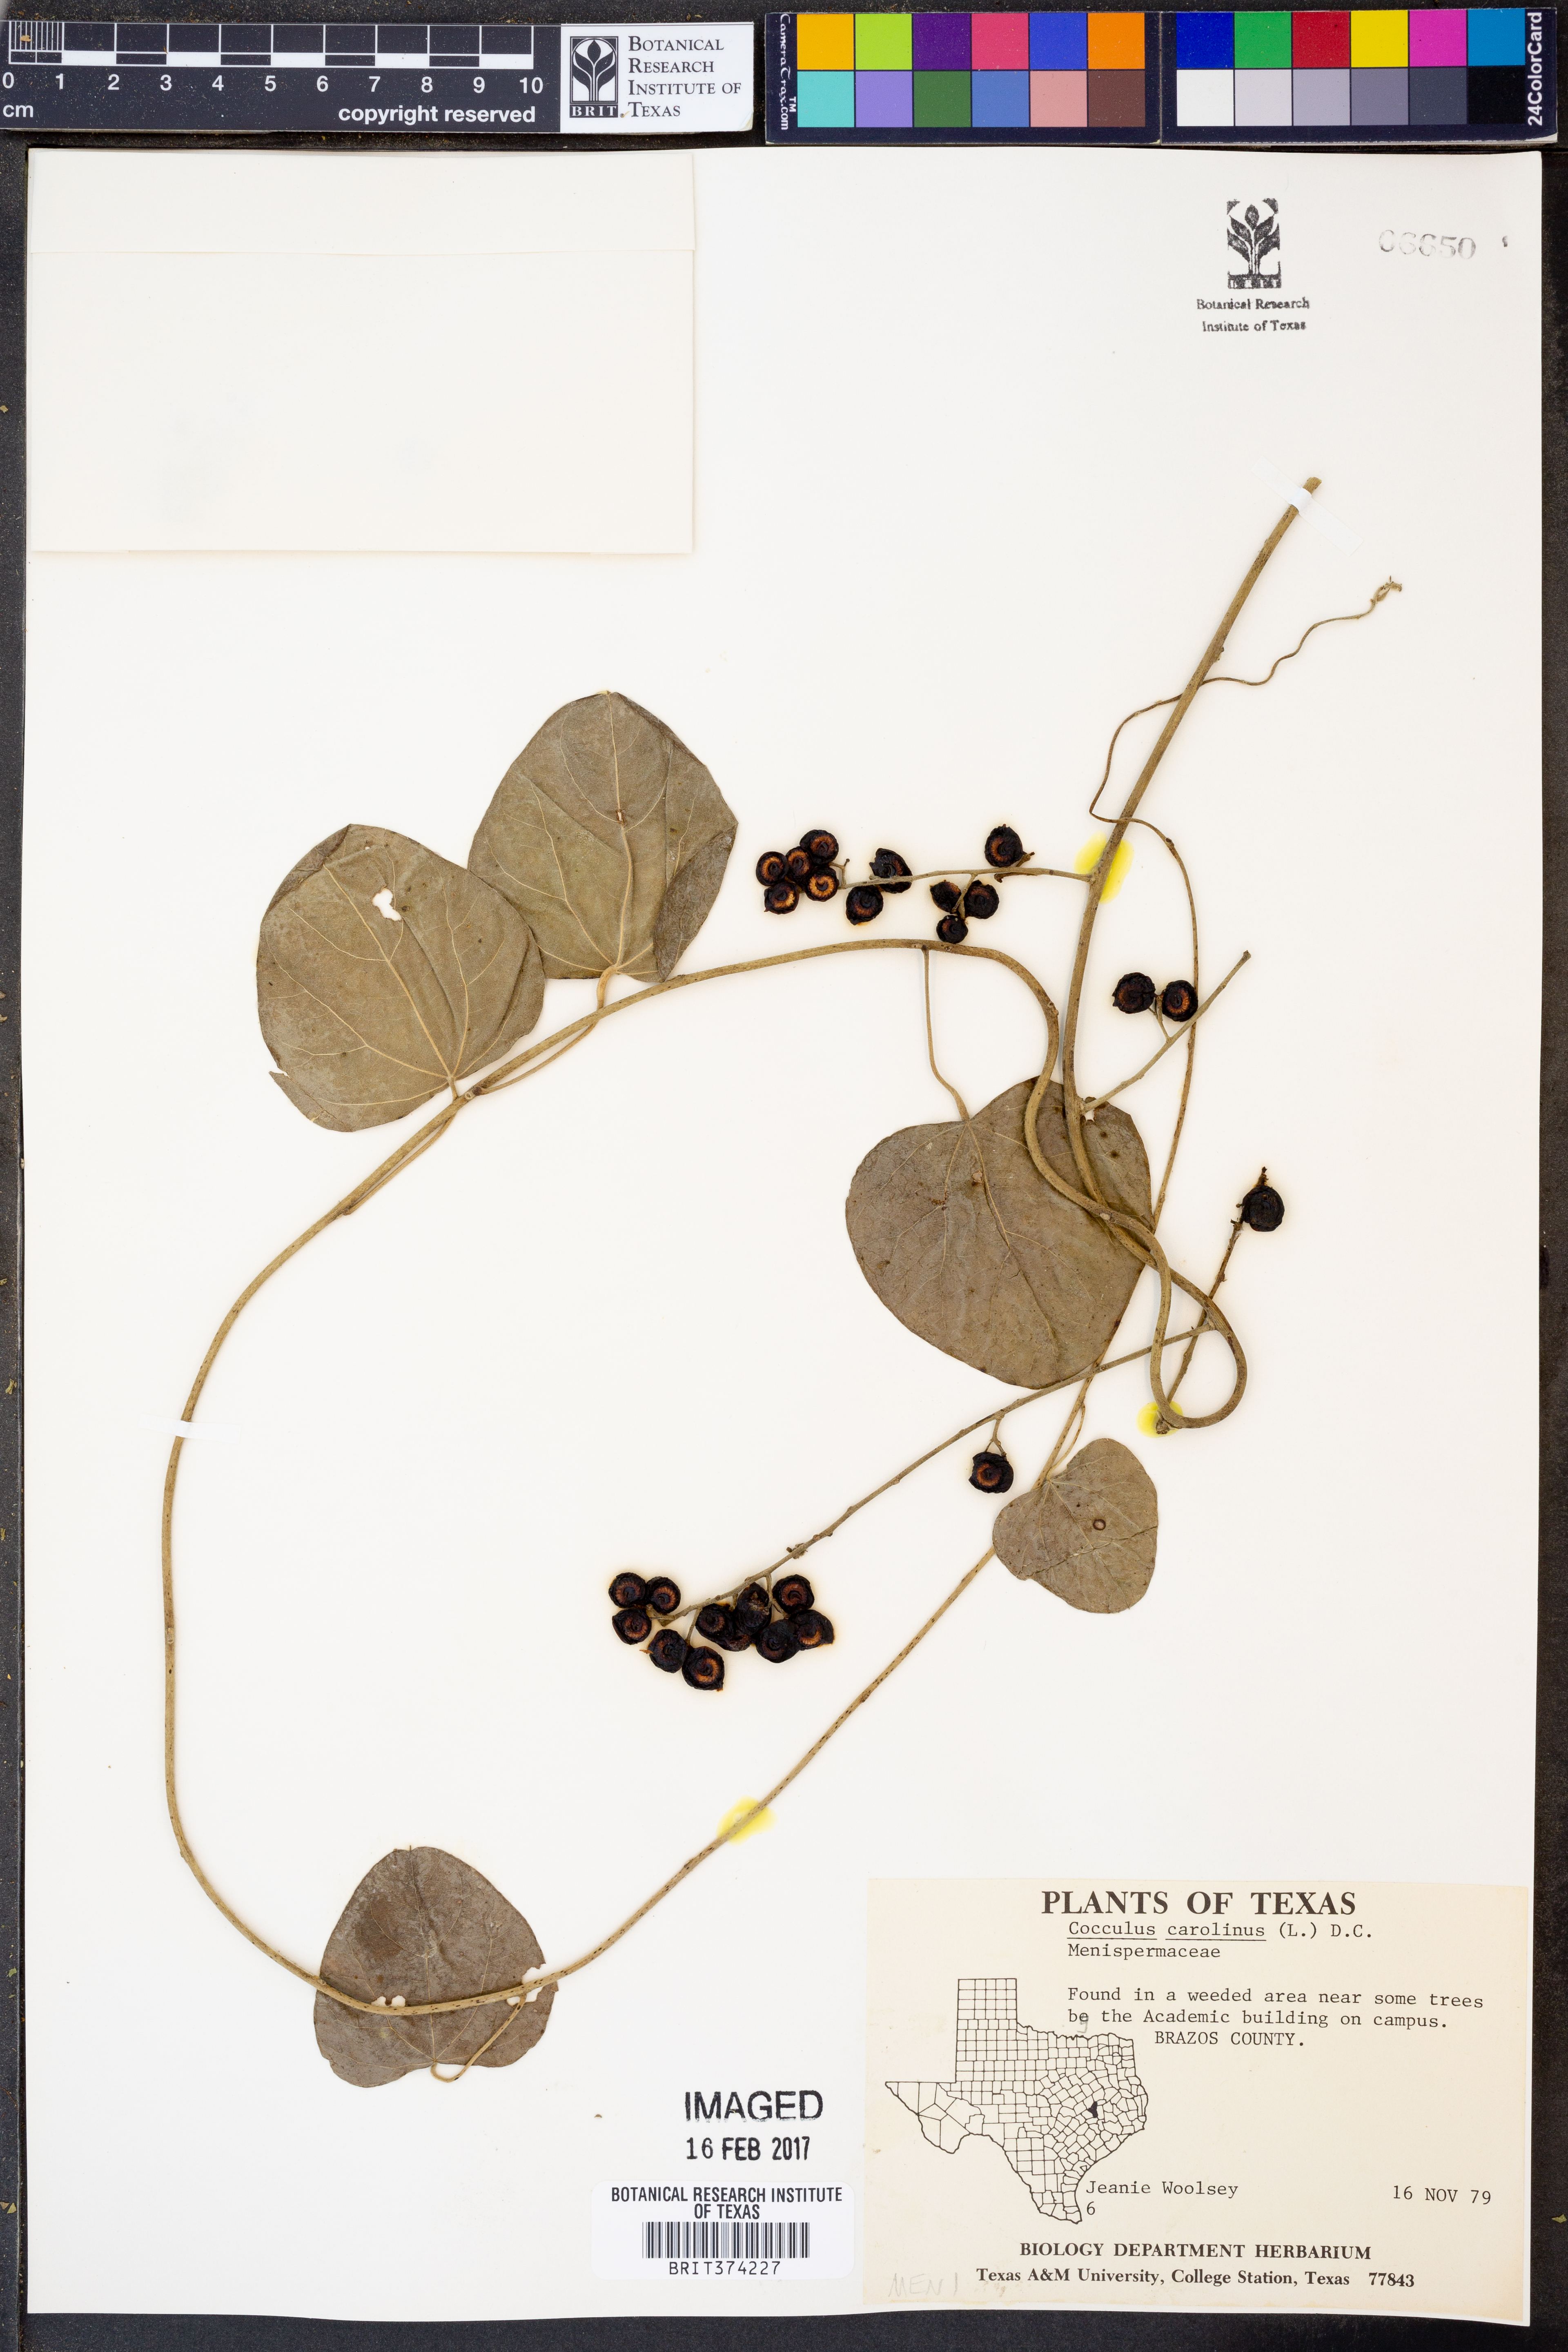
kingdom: Plantae
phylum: Tracheophyta
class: Magnoliopsida
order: Ranunculales
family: Menispermaceae
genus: Cocculus
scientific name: Cocculus carolinus
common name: Carolina moonseed
